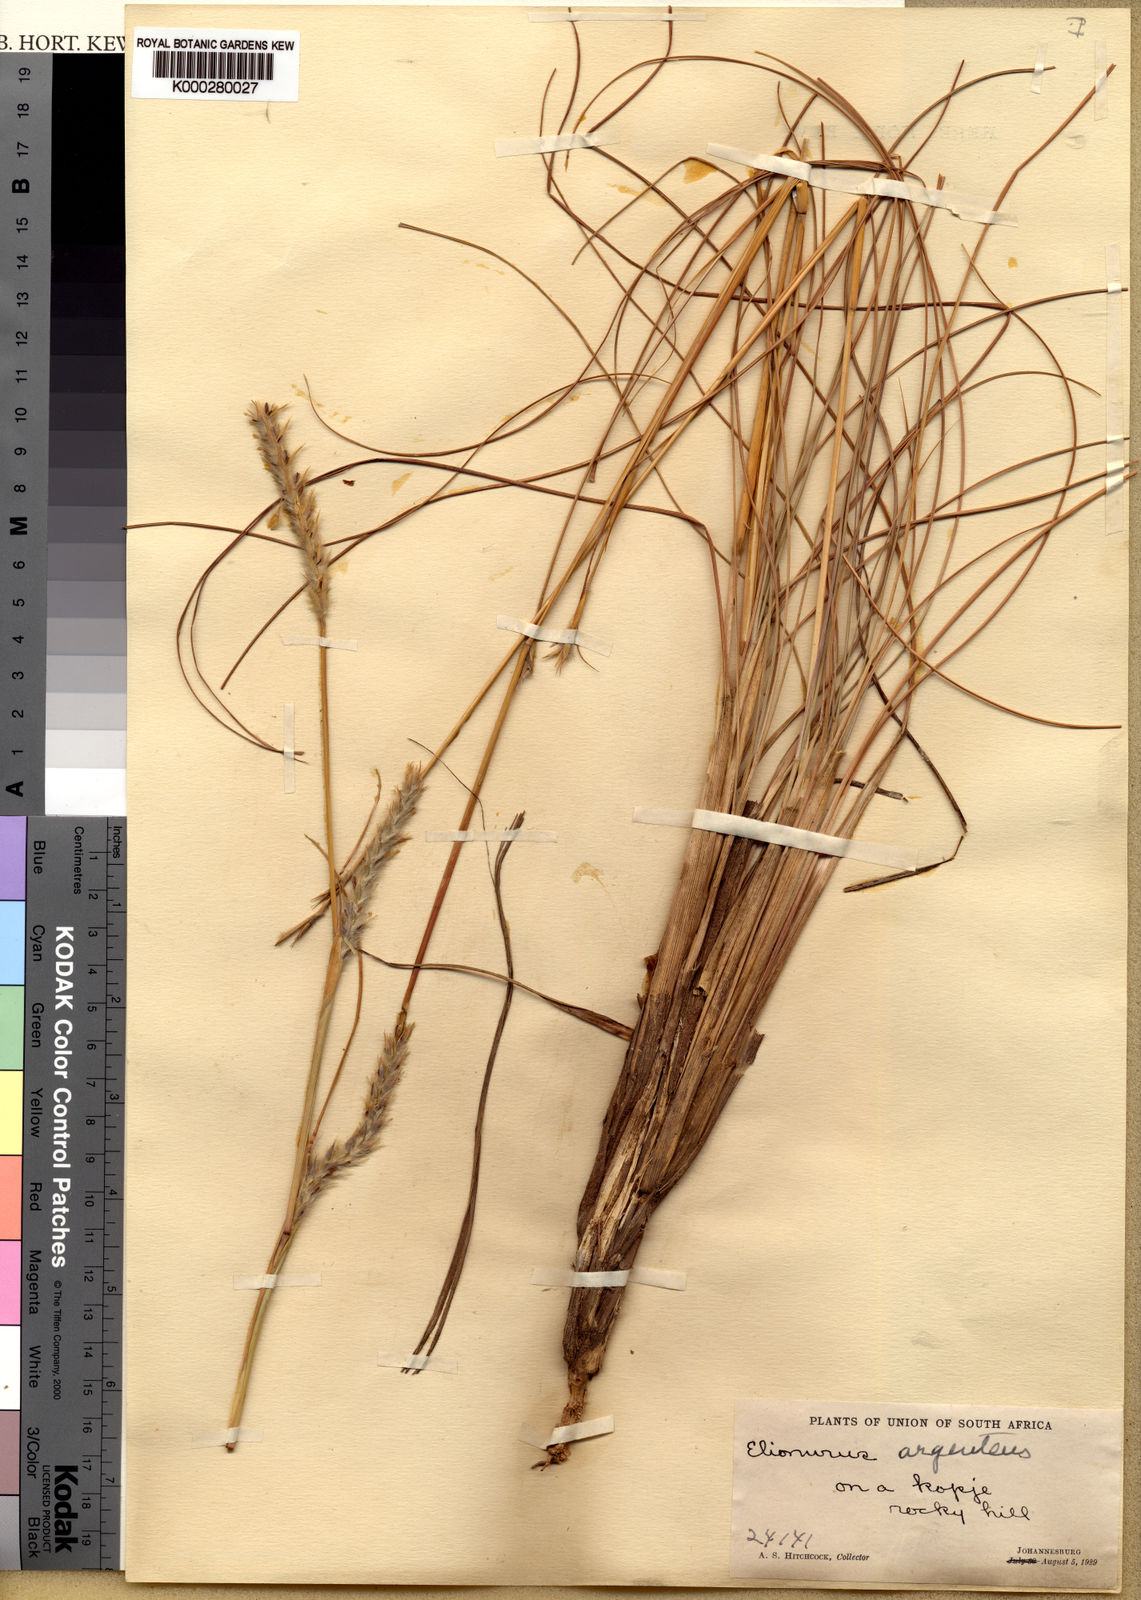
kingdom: Plantae
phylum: Tracheophyta
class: Liliopsida
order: Poales
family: Poaceae
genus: Elionurus
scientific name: Elionurus muticus
